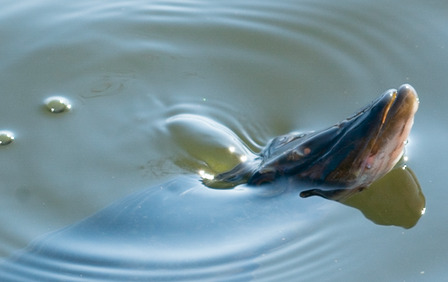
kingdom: Animalia
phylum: Chordata
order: Esociformes
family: Esocidae
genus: Esox
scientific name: Esox lucius
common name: Gedde
